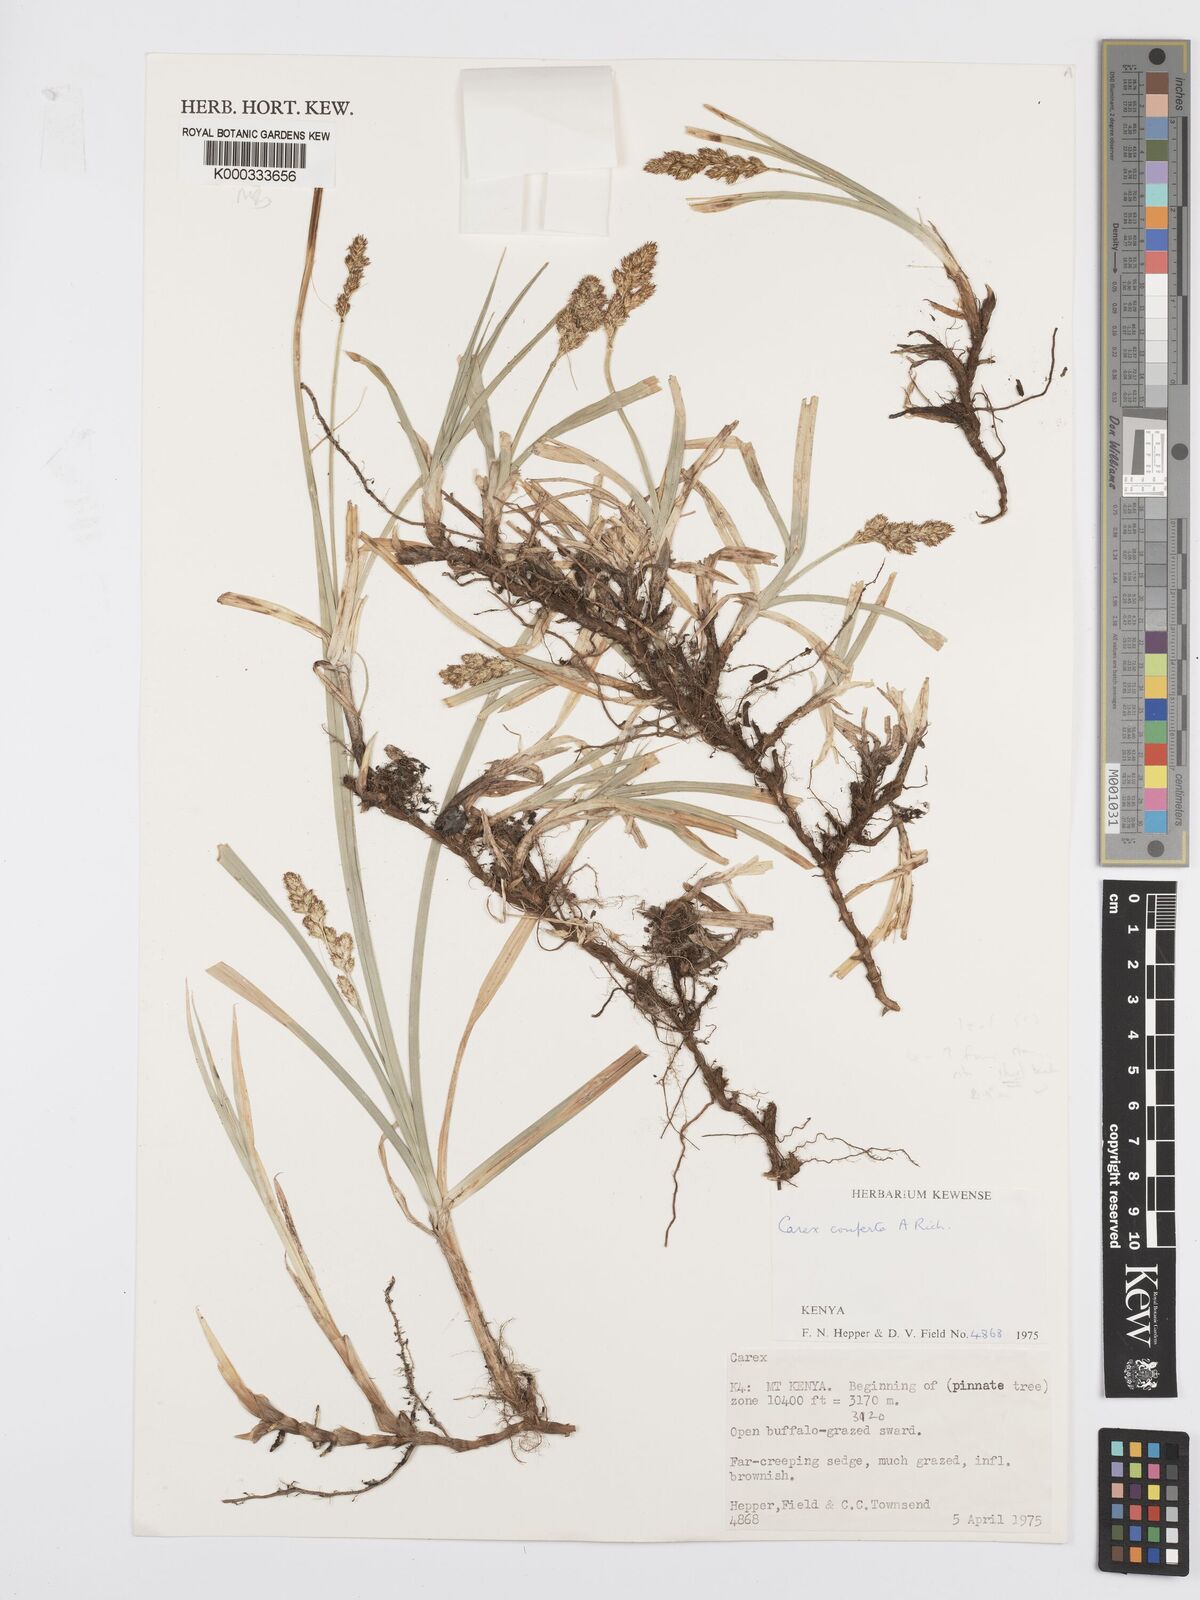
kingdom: Plantae
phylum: Tracheophyta
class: Liliopsida
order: Poales
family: Cyperaceae
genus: Carex
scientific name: Carex conferta
